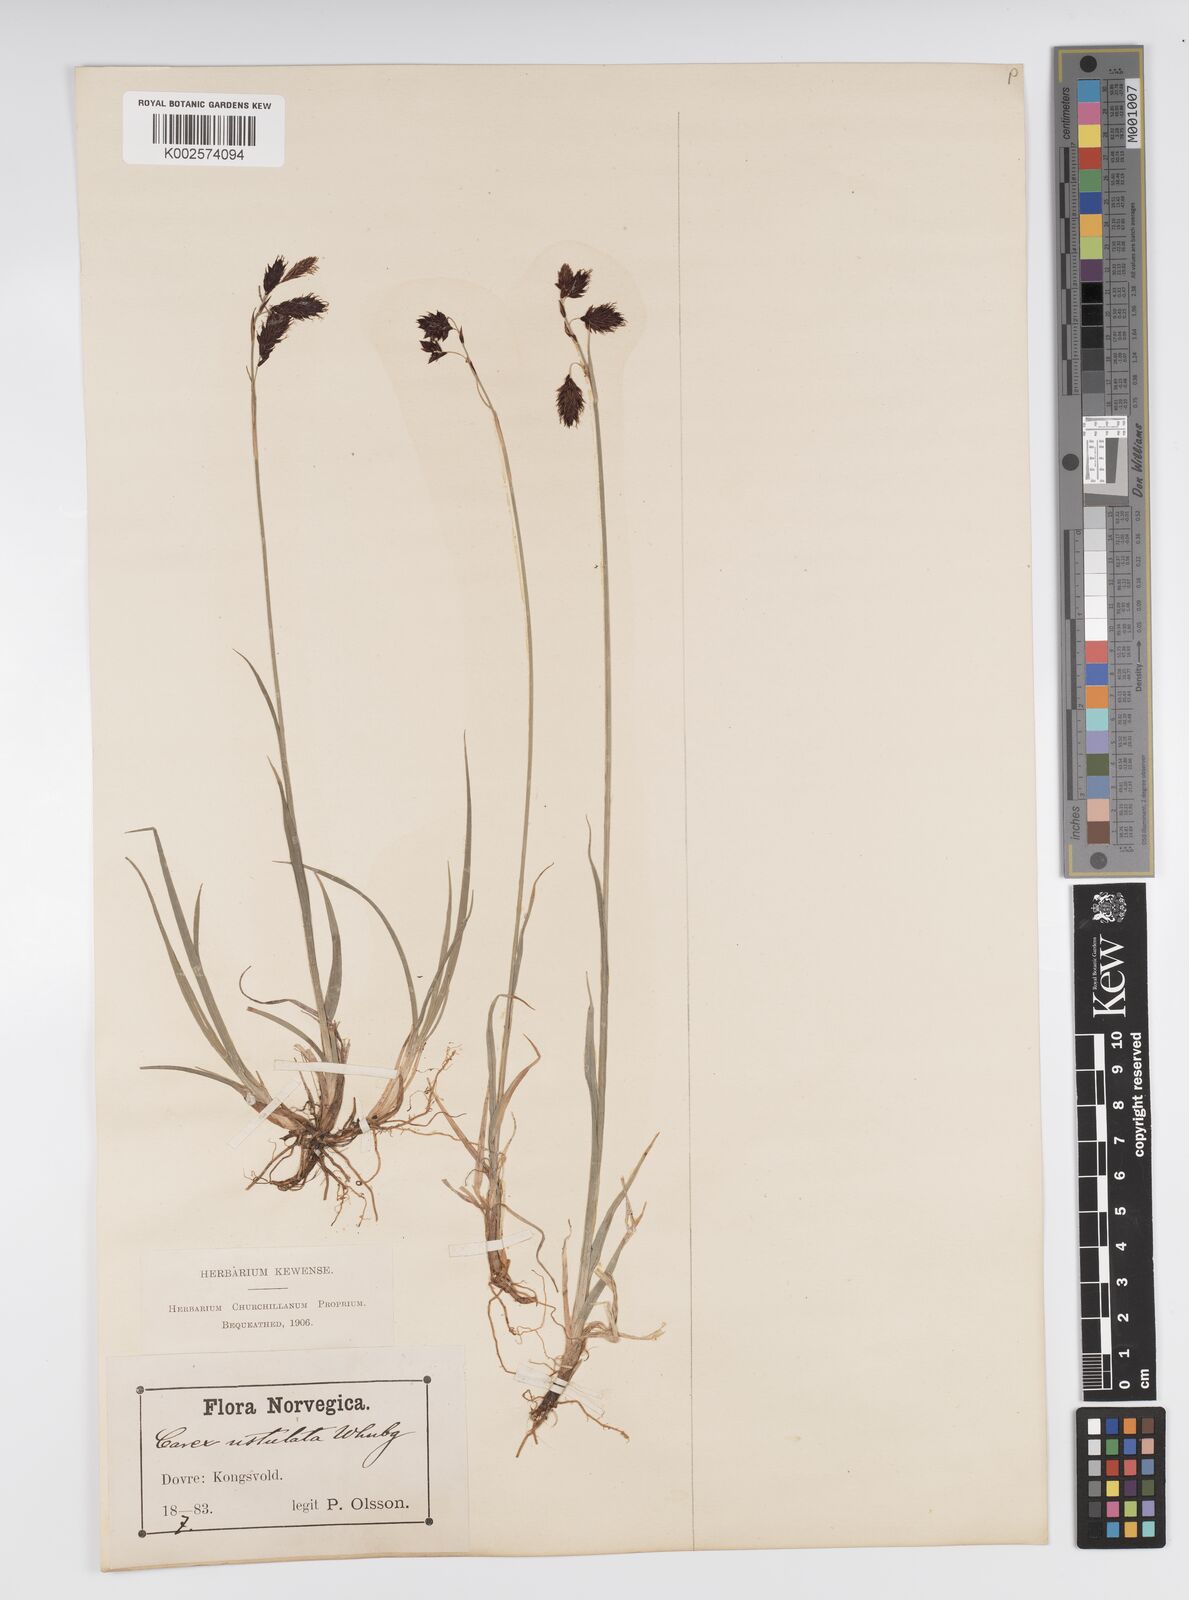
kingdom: Plantae
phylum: Tracheophyta
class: Liliopsida
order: Poales
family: Cyperaceae
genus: Carex
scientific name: Carex atrofusca
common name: Scorched alpine-sedge
